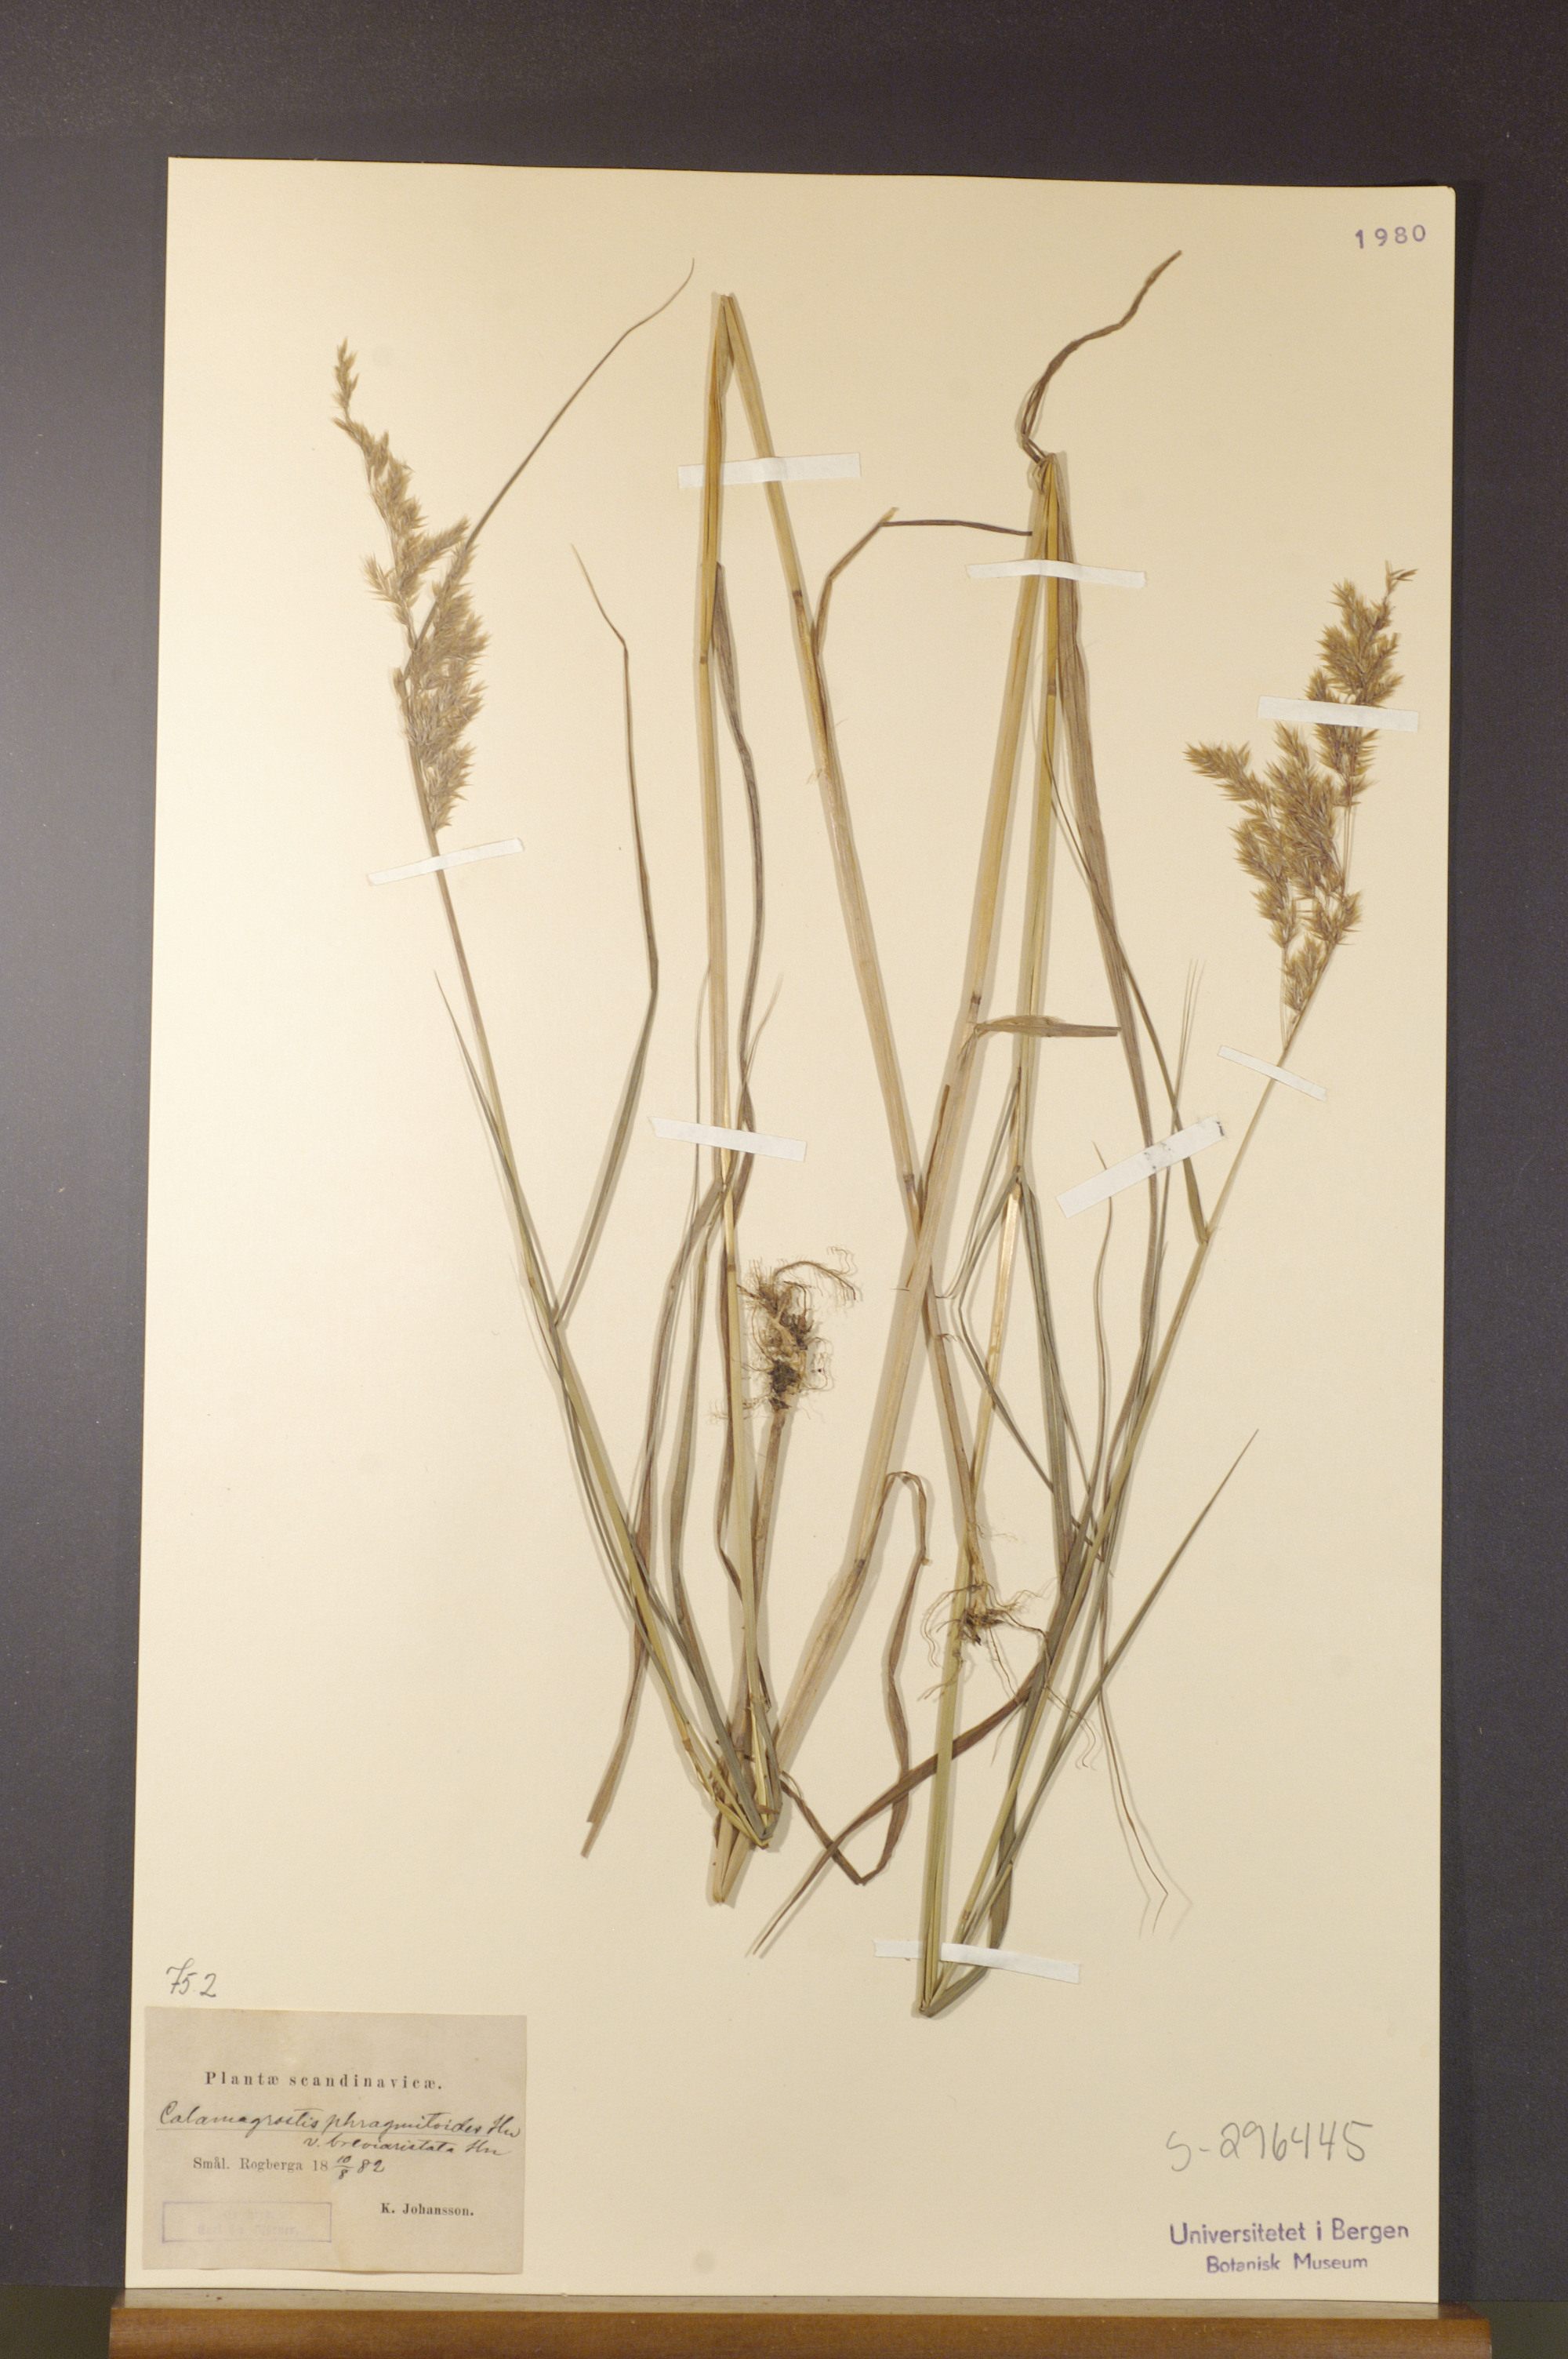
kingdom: Plantae
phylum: Tracheophyta
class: Liliopsida
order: Poales
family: Poaceae
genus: Calamagrostis
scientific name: Calamagrostis purpurea
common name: Scandinavian small-reed
